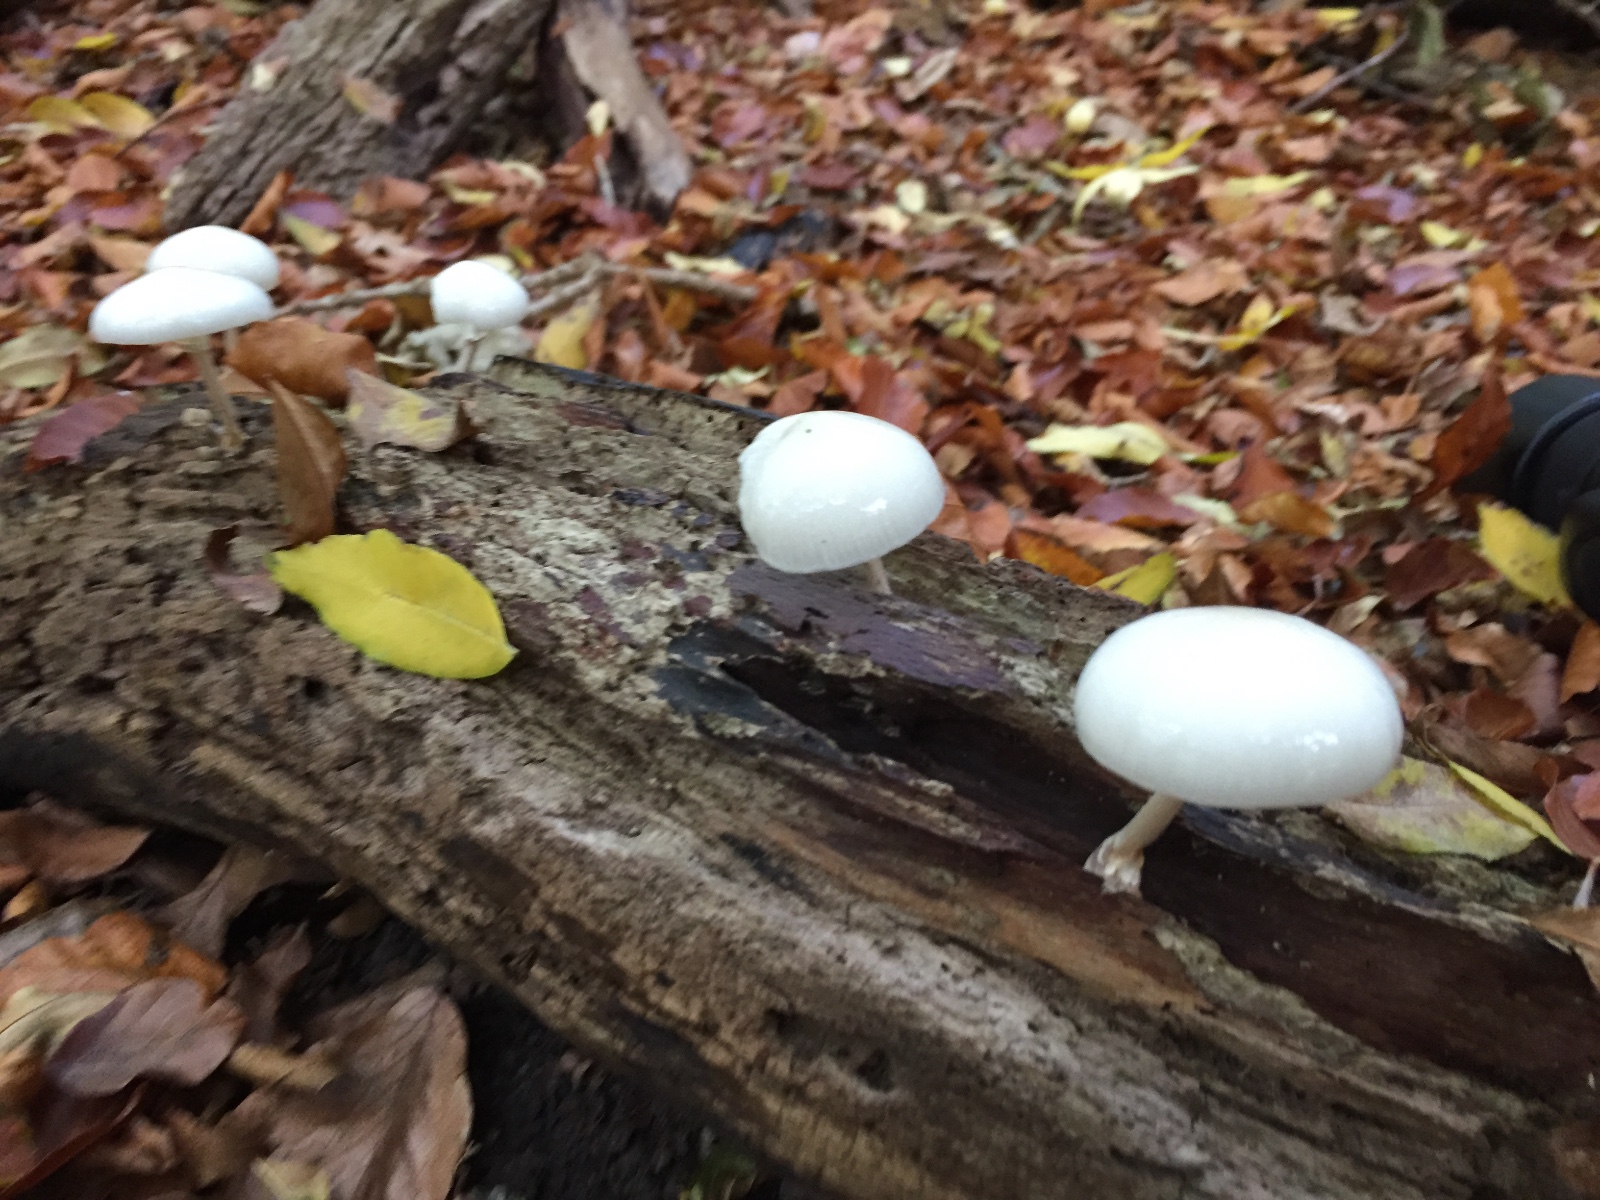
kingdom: Fungi
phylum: Basidiomycota
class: Agaricomycetes
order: Agaricales
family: Physalacriaceae
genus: Mucidula
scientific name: Mucidula mucida
